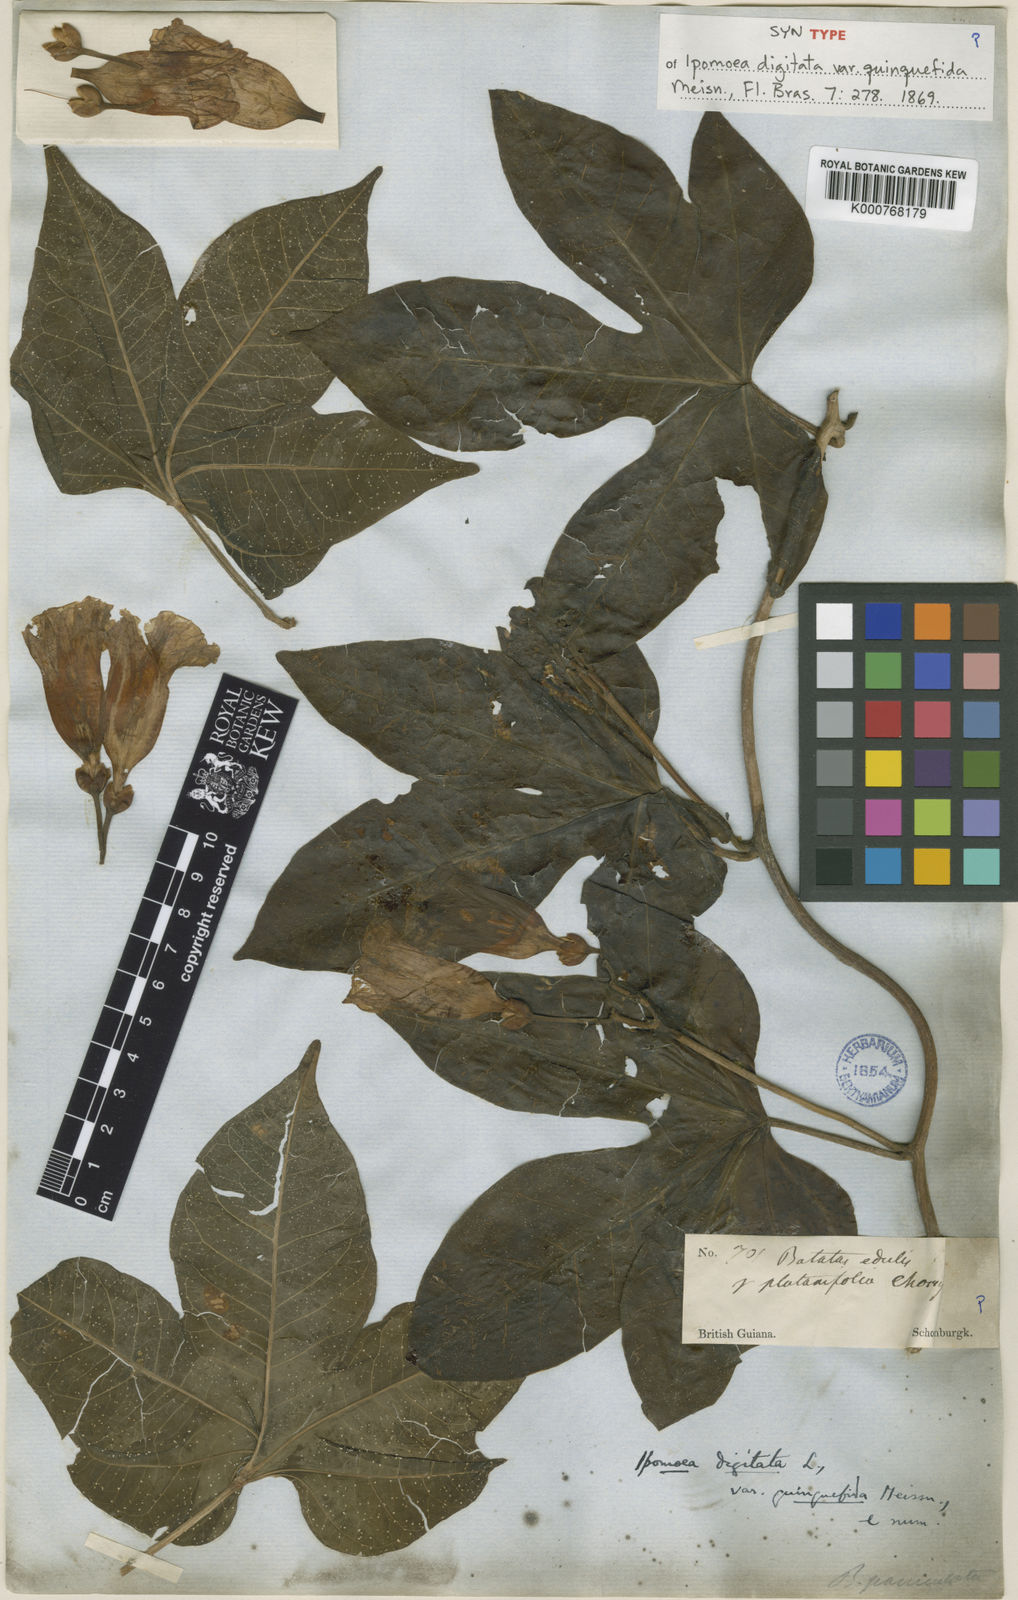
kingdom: Plantae
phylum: Tracheophyta
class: Magnoliopsida
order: Solanales
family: Convolvulaceae
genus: Ipomoea
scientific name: Ipomoea mauritiana
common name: Mauritanian convolvulus
